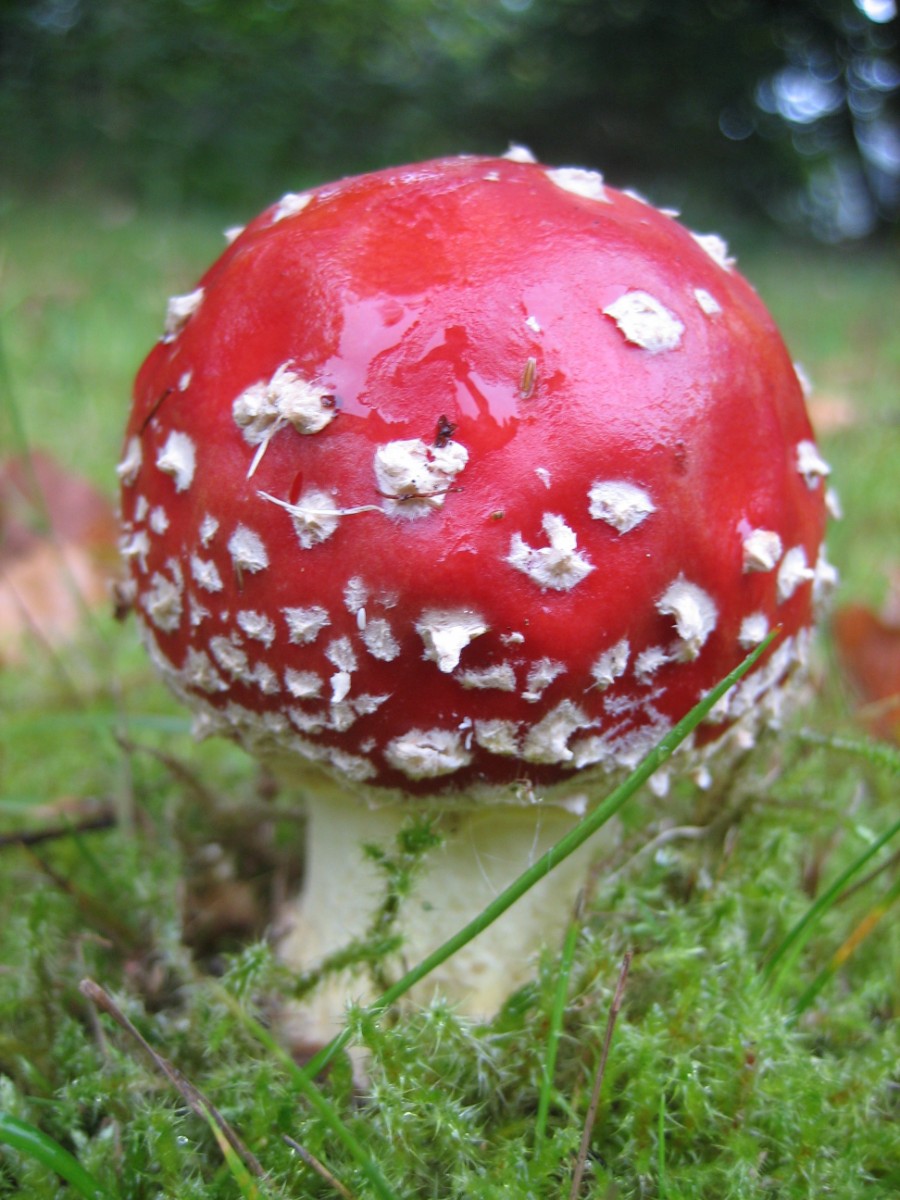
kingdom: Fungi
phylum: Basidiomycota
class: Agaricomycetes
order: Agaricales
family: Amanitaceae
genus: Amanita
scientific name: Amanita muscaria
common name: rød fluesvamp
